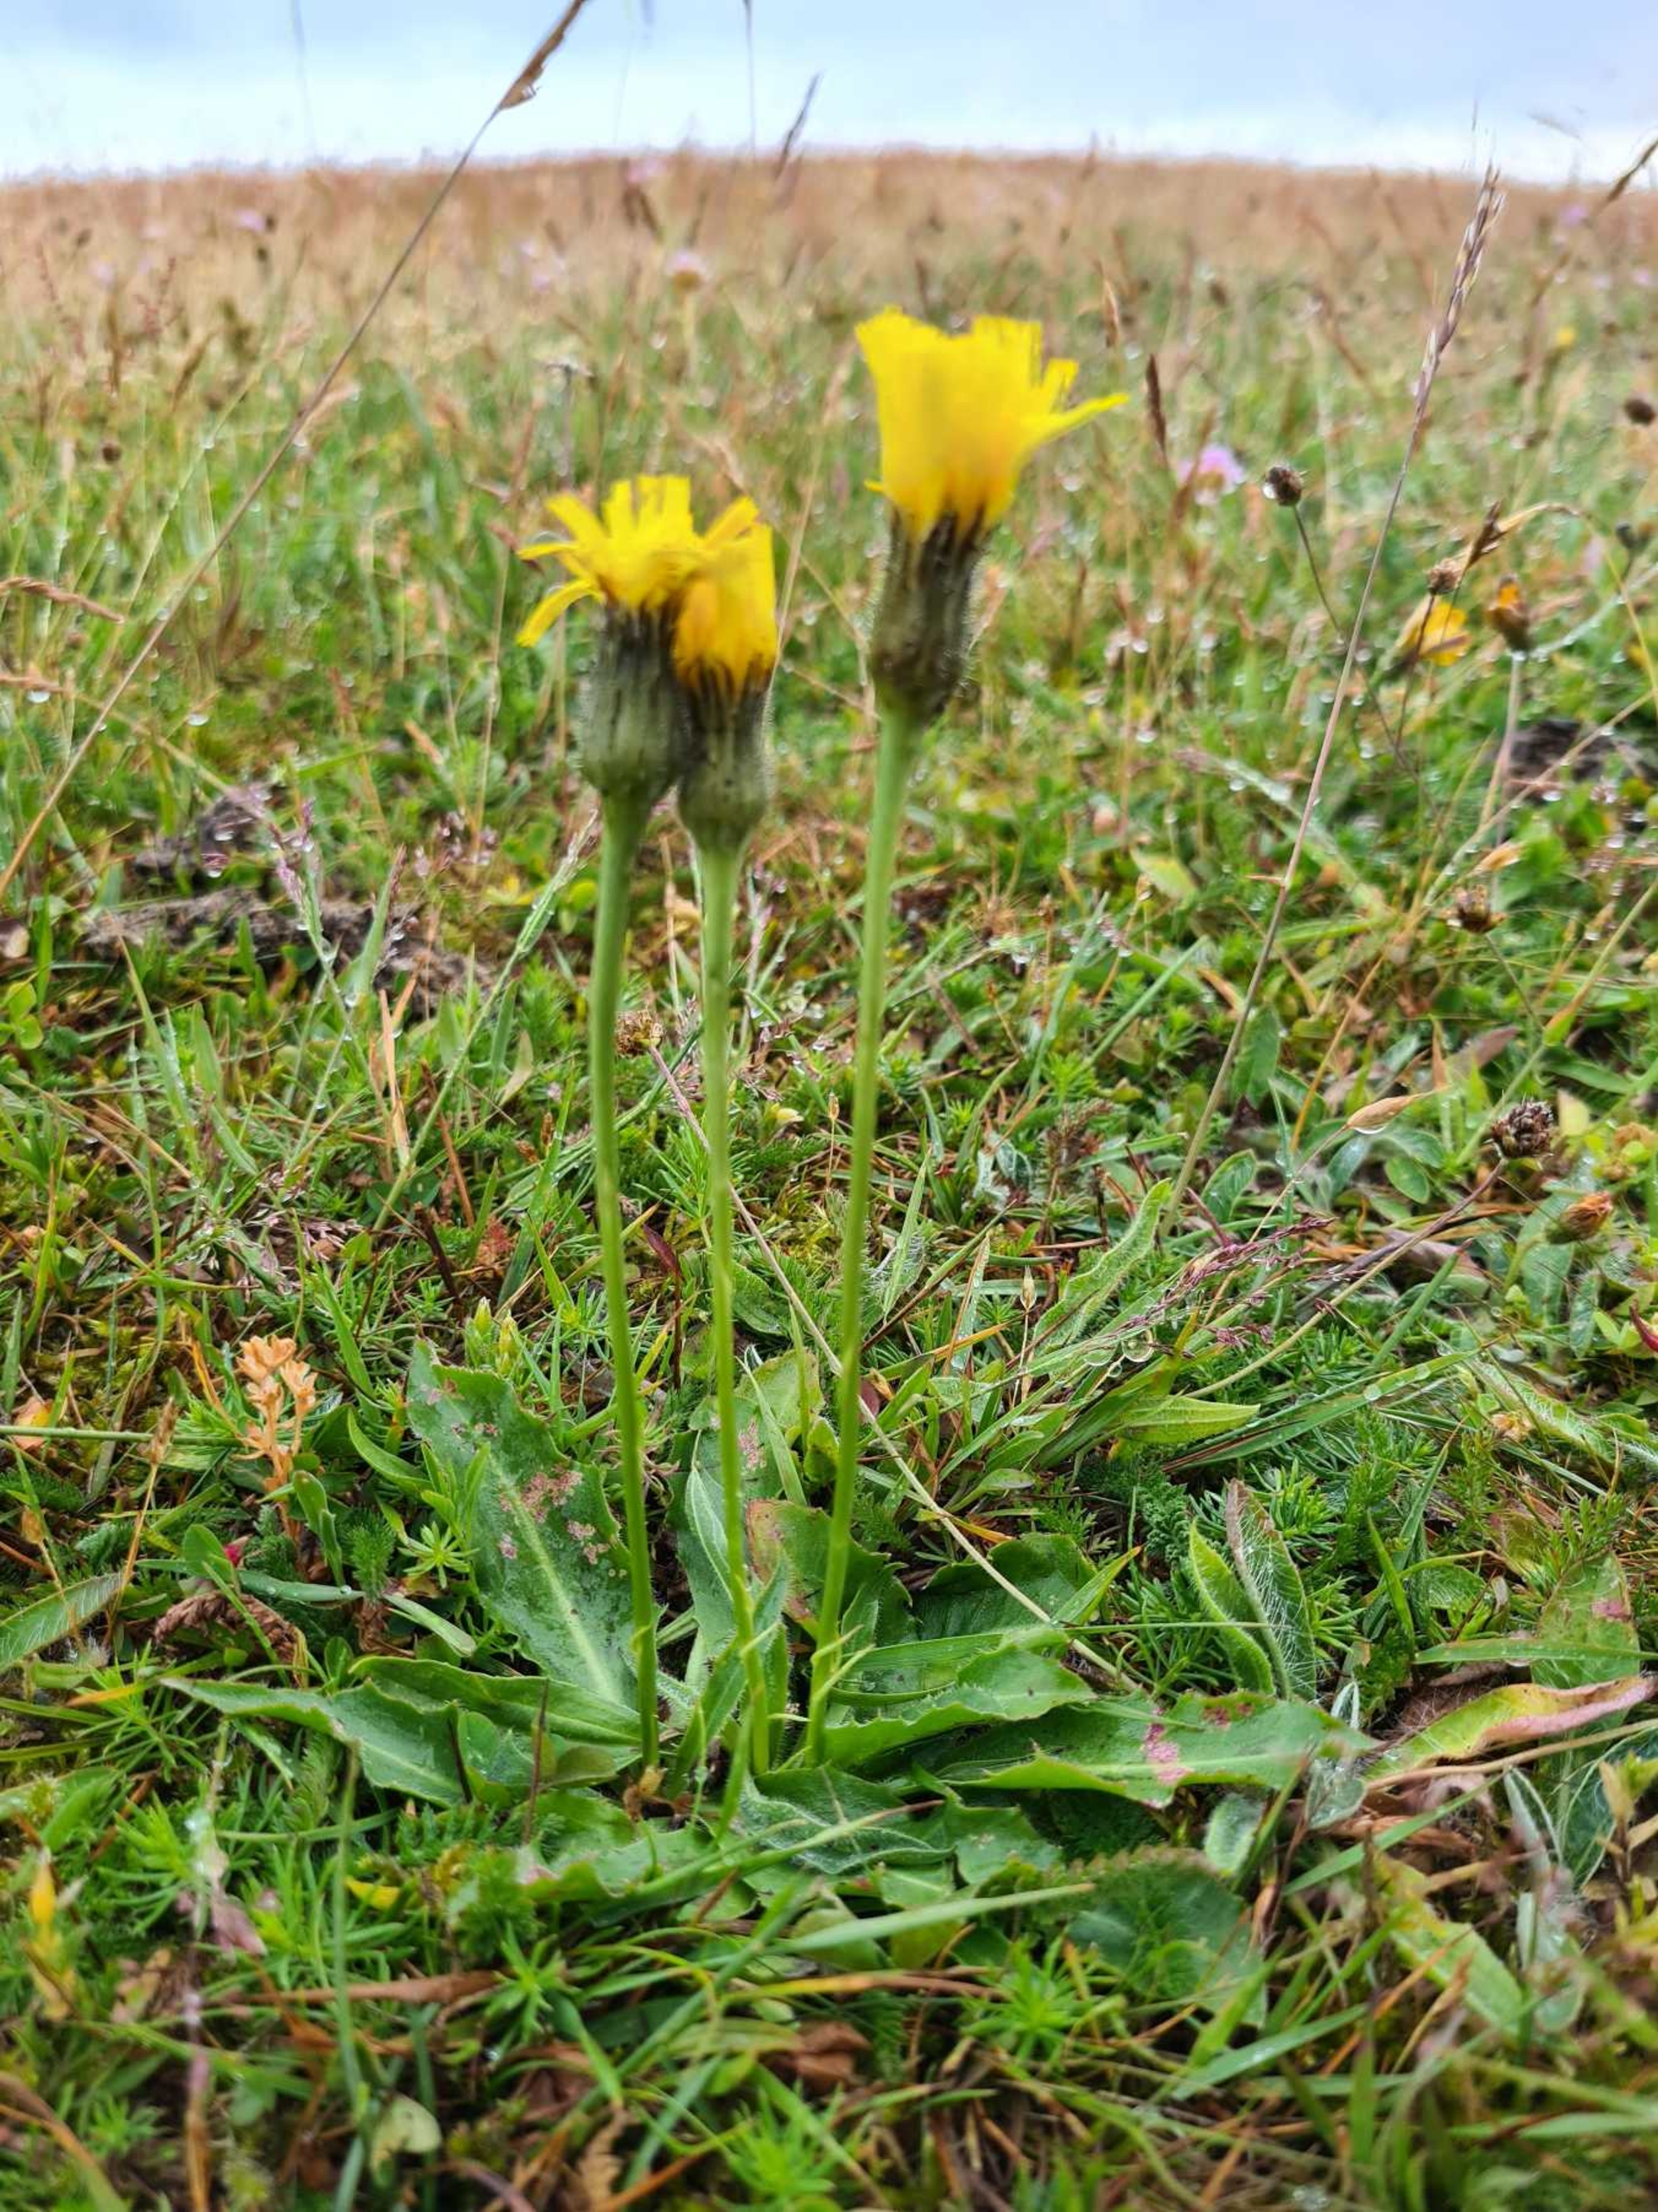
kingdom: Plantae
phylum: Tracheophyta
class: Magnoliopsida
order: Asterales
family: Asteraceae
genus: Trommsdorffia
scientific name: Trommsdorffia maculata
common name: Plettet kongepen
